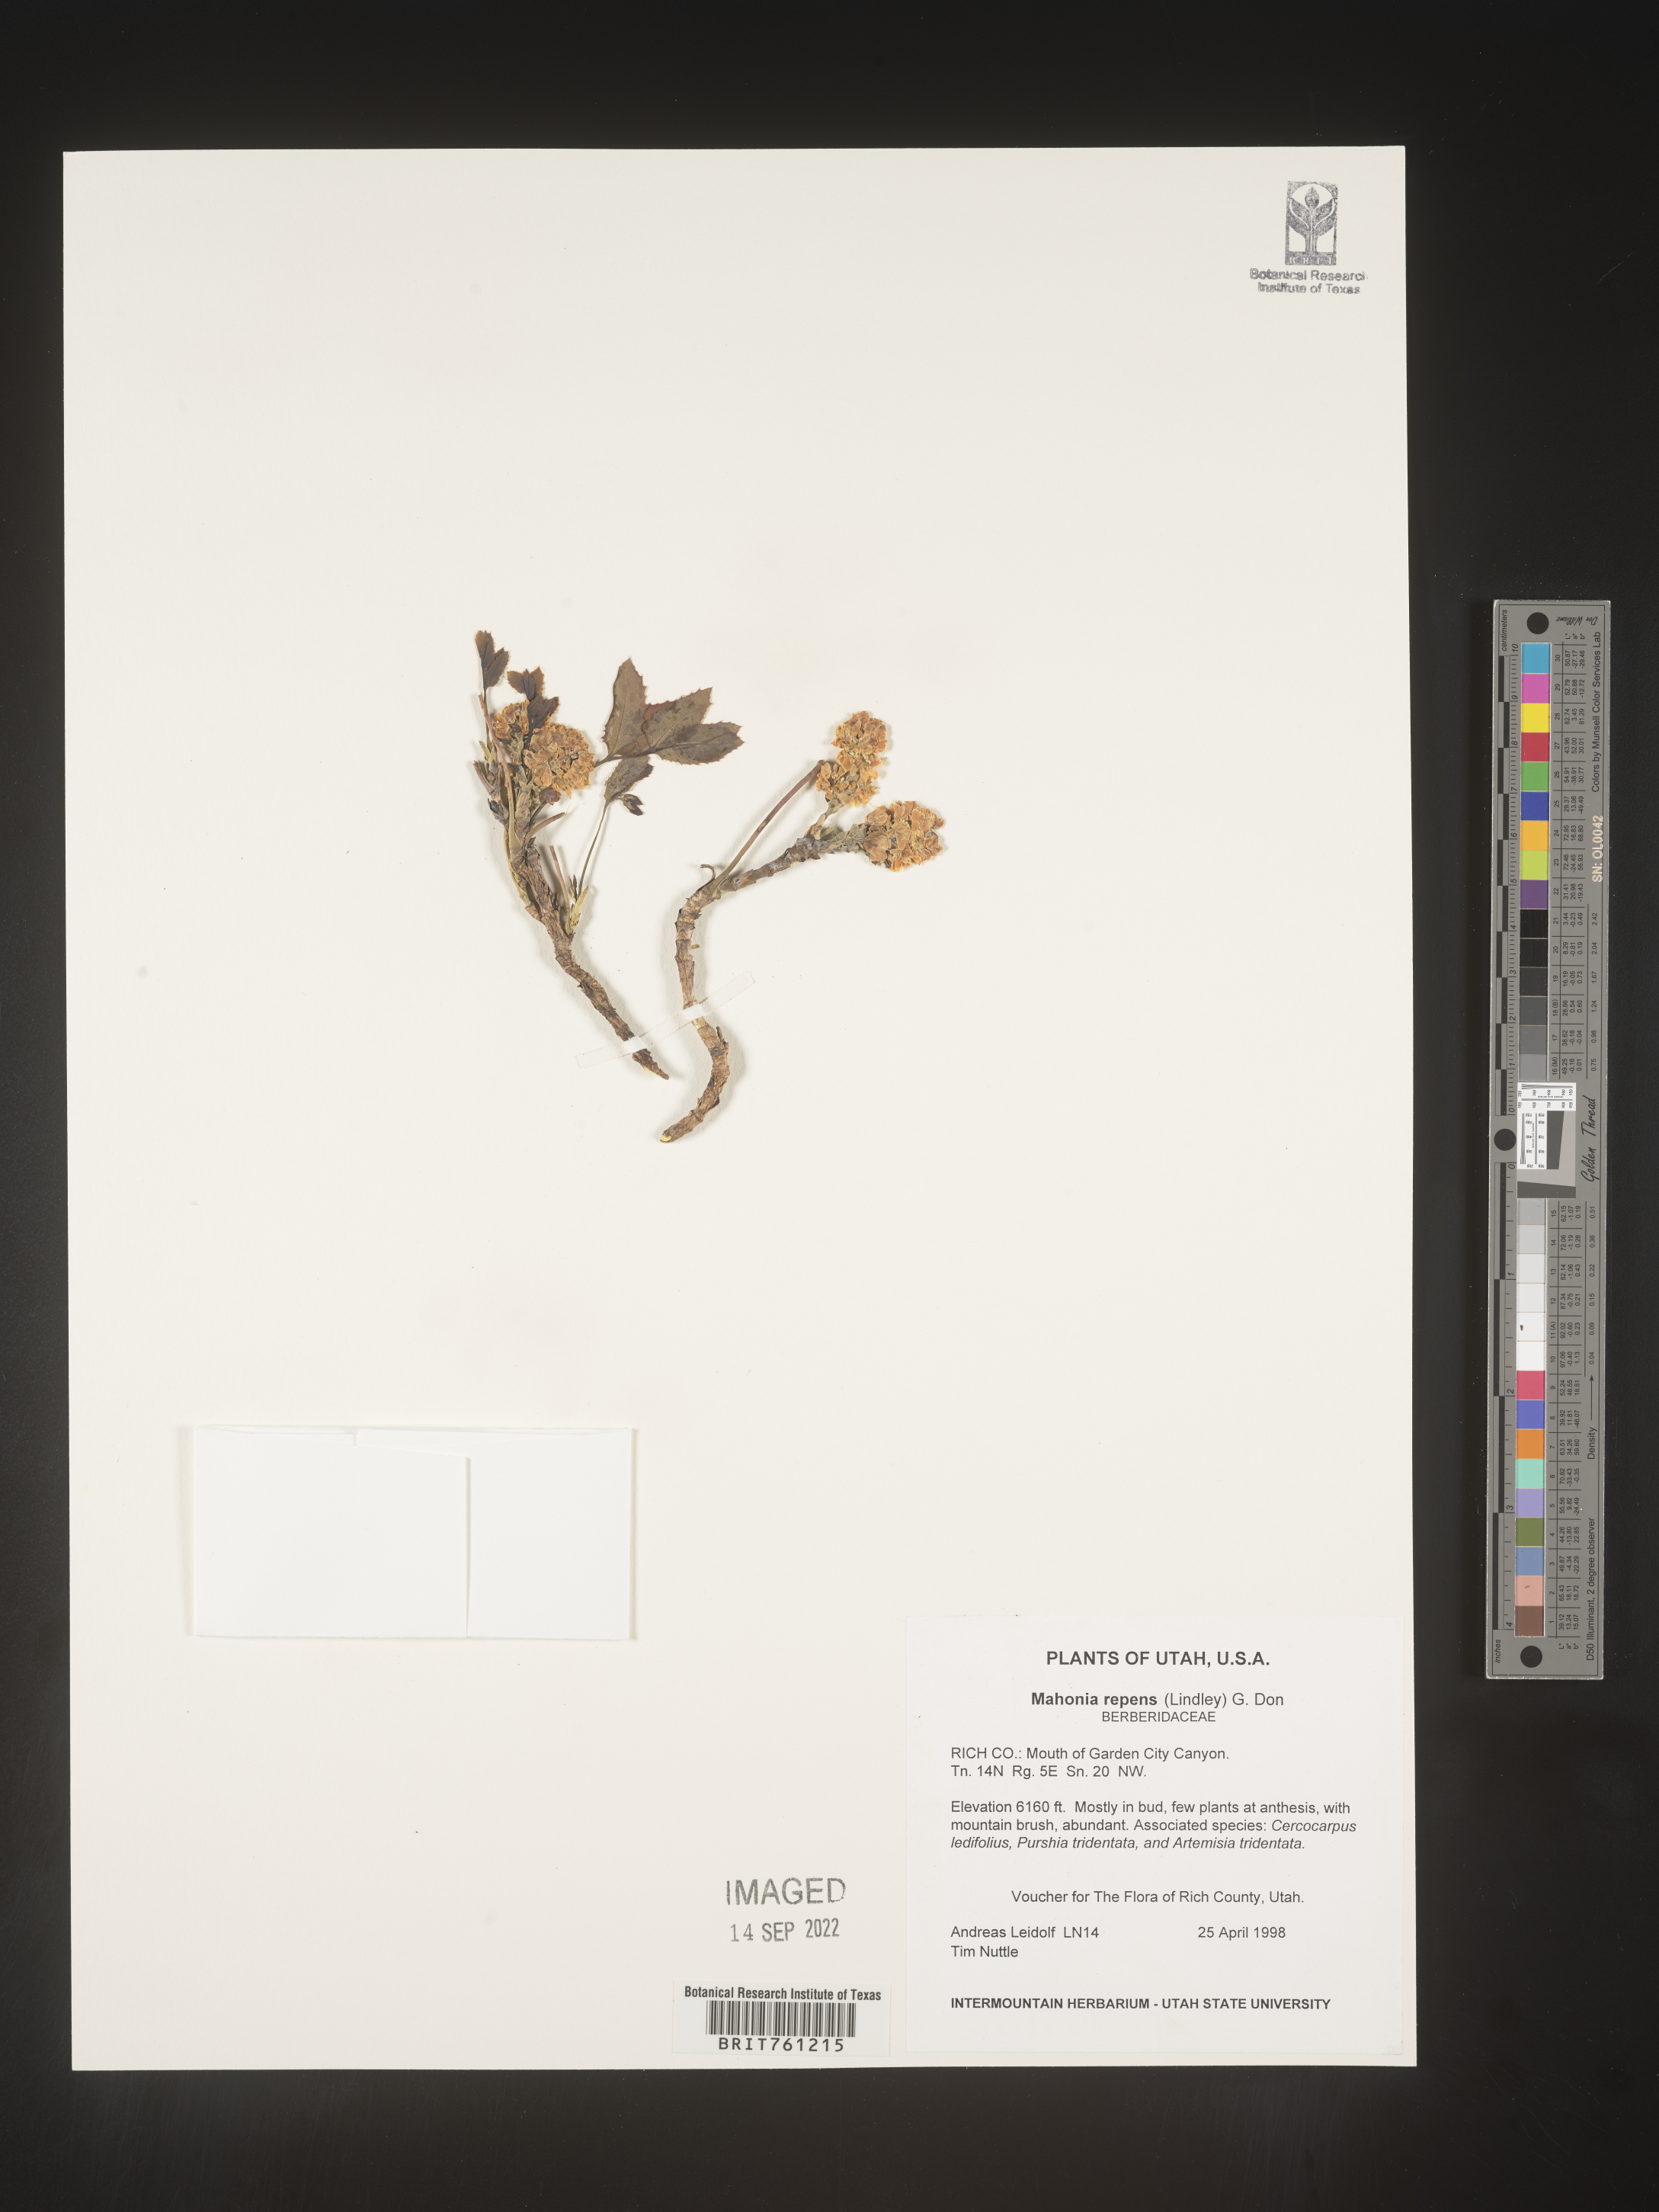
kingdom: Plantae
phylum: Tracheophyta
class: Magnoliopsida
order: Ranunculales
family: Berberidaceae
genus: Mahonia
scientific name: Mahonia repens
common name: Creeping oregon-grape
